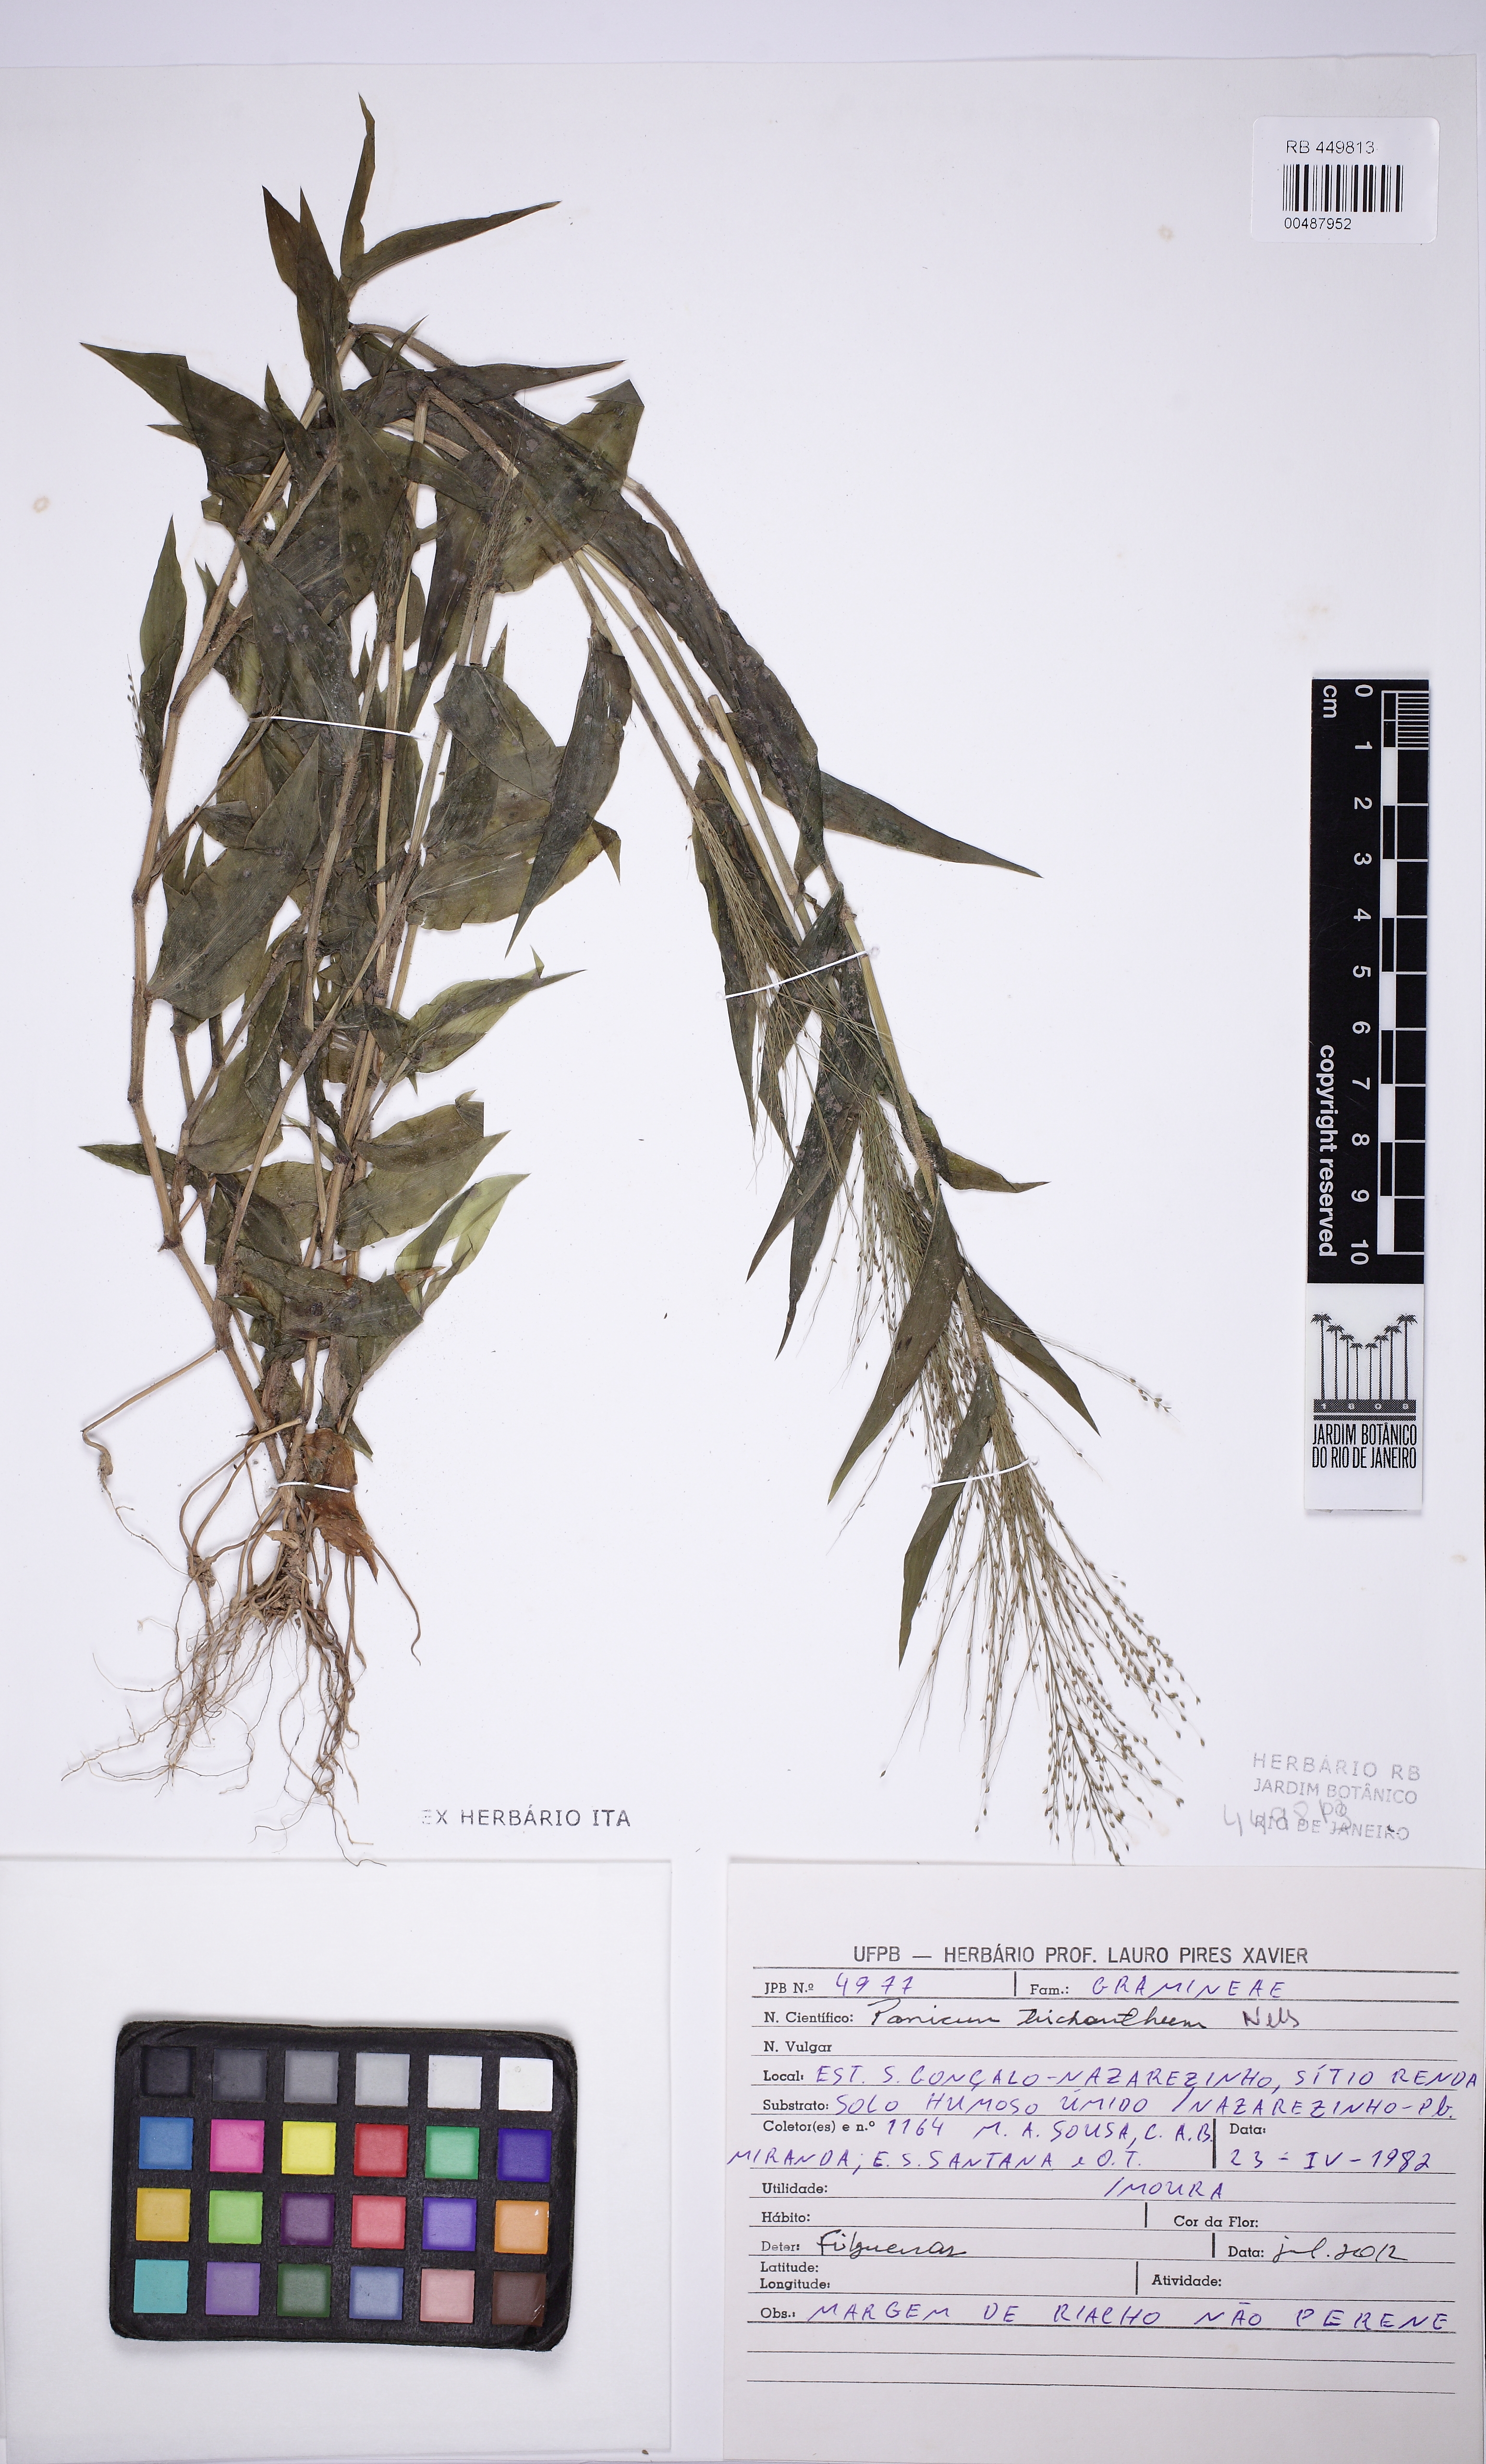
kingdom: Plantae
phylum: Tracheophyta
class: Liliopsida
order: Poales
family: Poaceae
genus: Panicum
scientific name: Panicum trichoides
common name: Tickle grass
